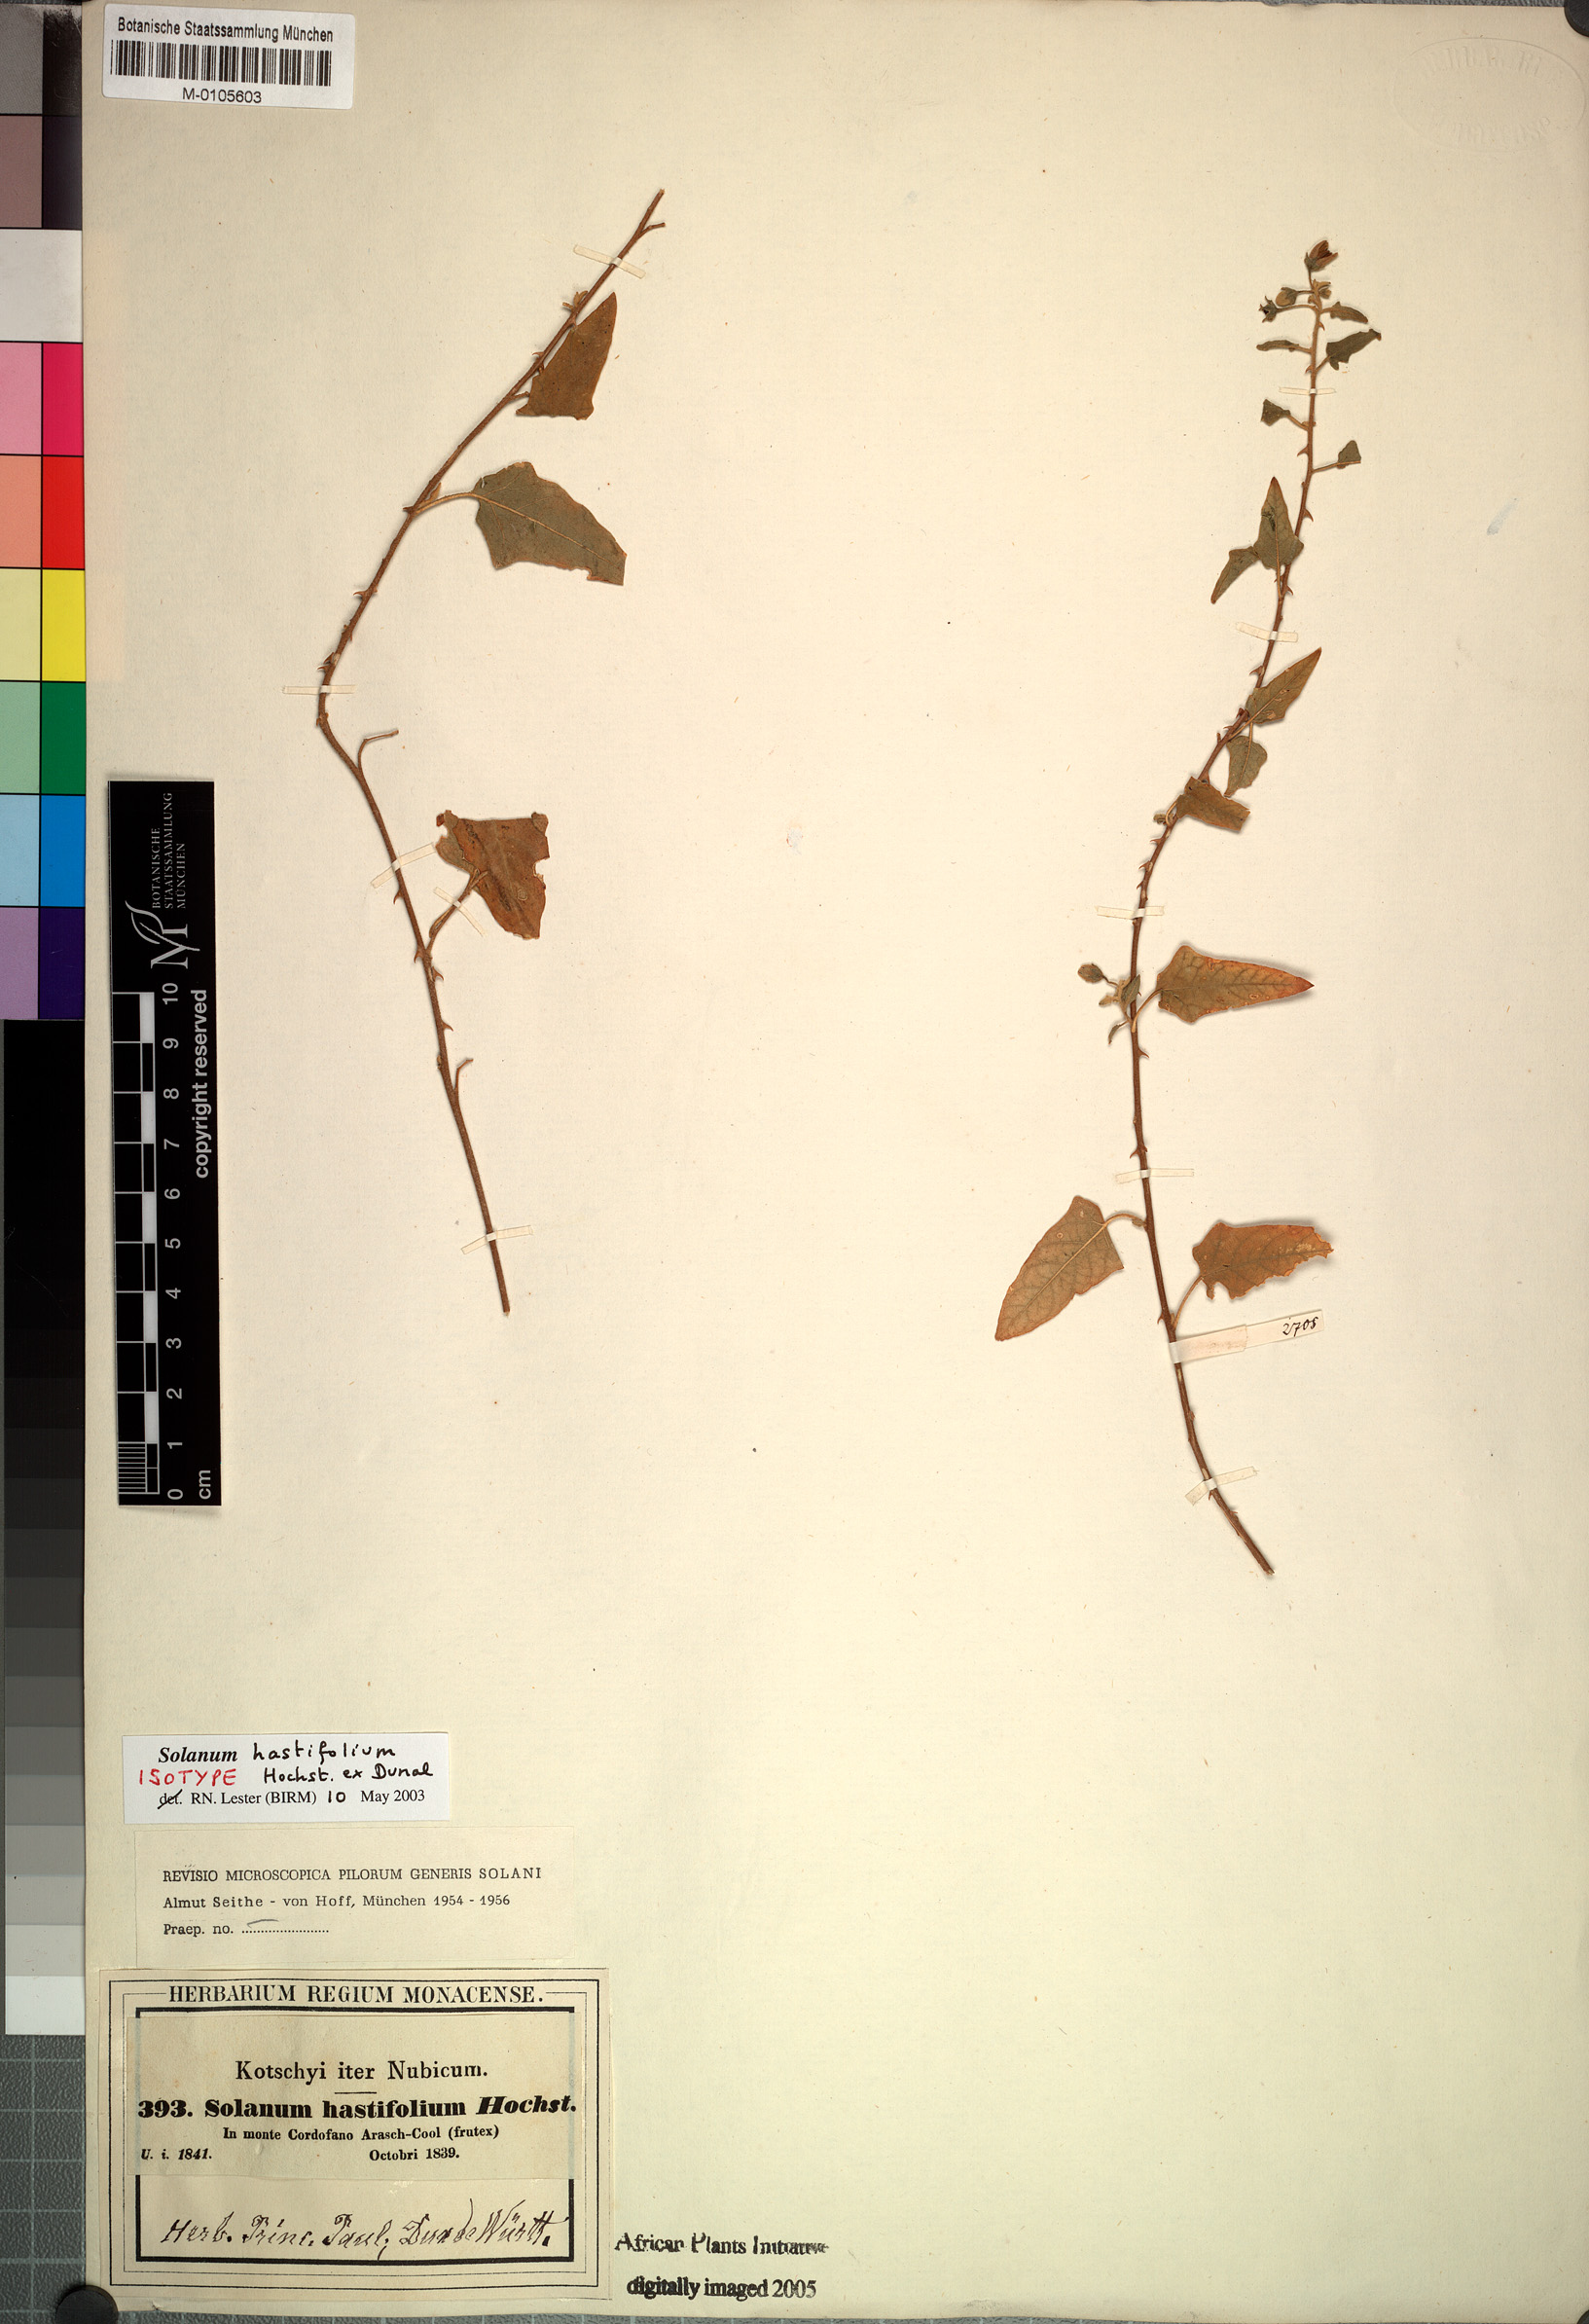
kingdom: Plantae
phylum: Tracheophyta
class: Magnoliopsida
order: Solanales
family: Solanaceae
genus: Solanum
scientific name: Solanum hastifolium
